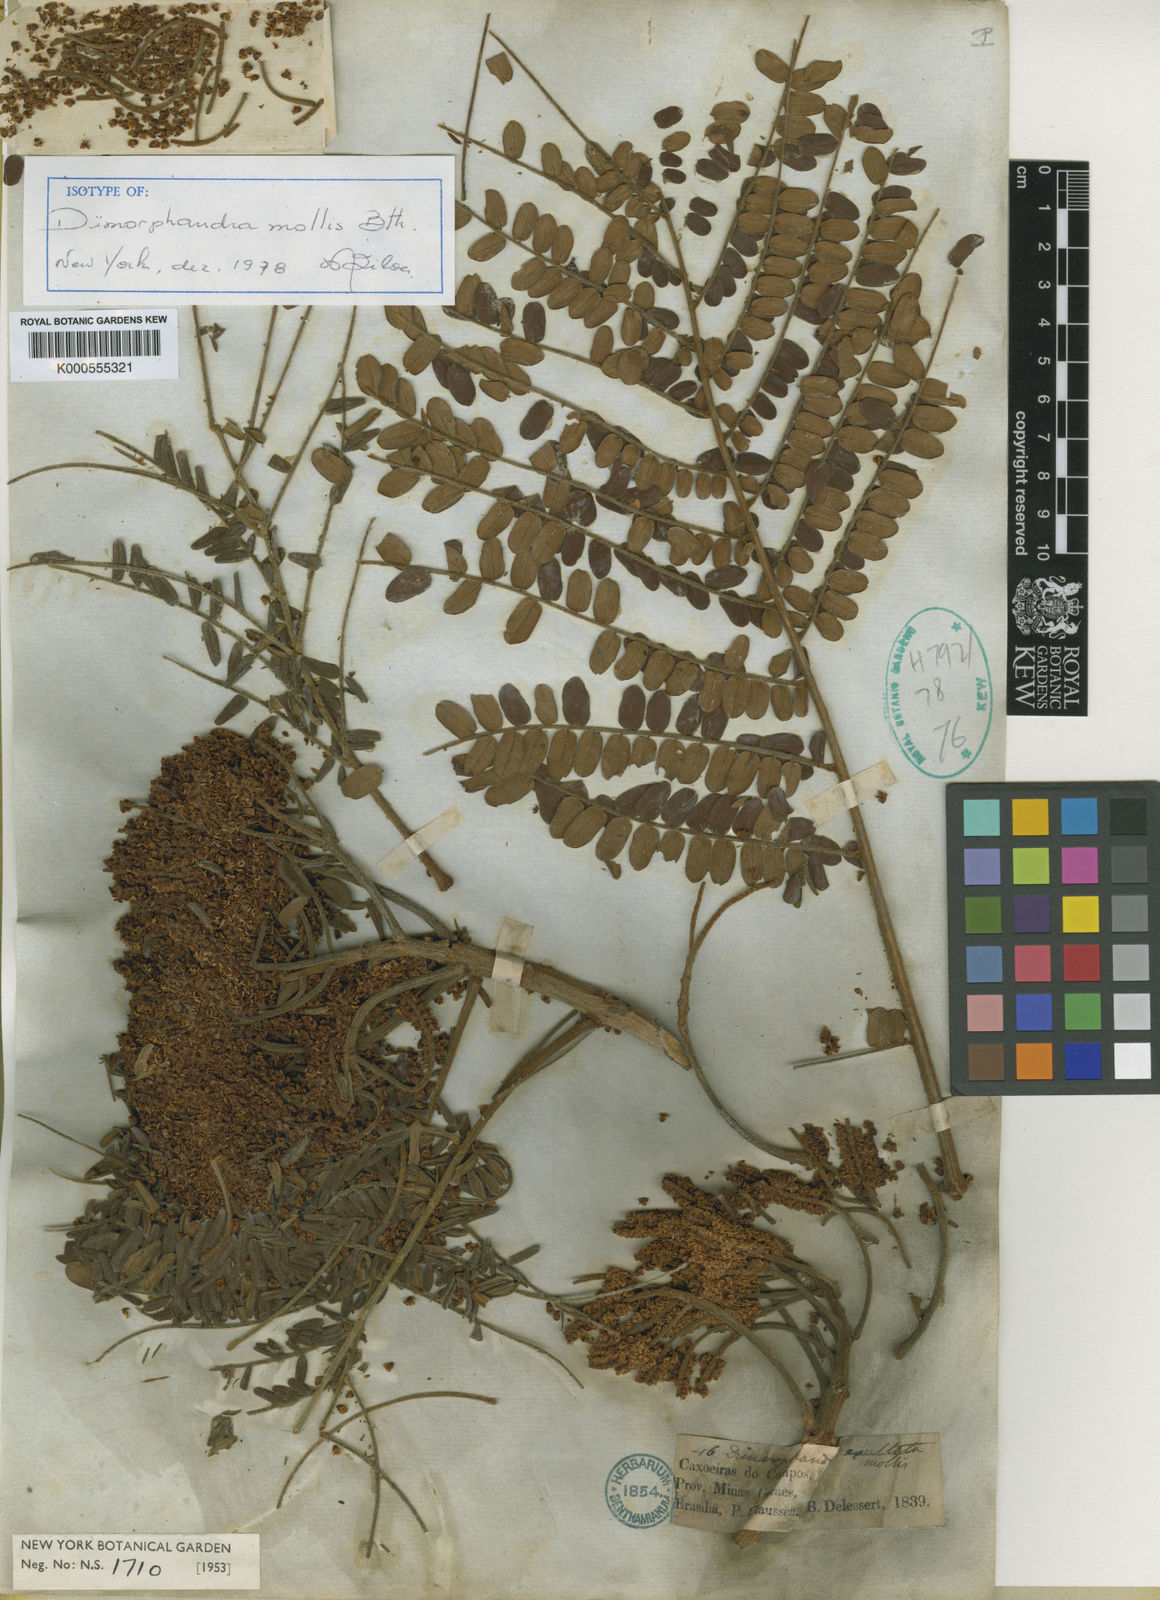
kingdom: Plantae
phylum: Tracheophyta
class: Magnoliopsida
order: Fabales
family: Fabaceae
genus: Dimorphandra
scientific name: Dimorphandra mollis
